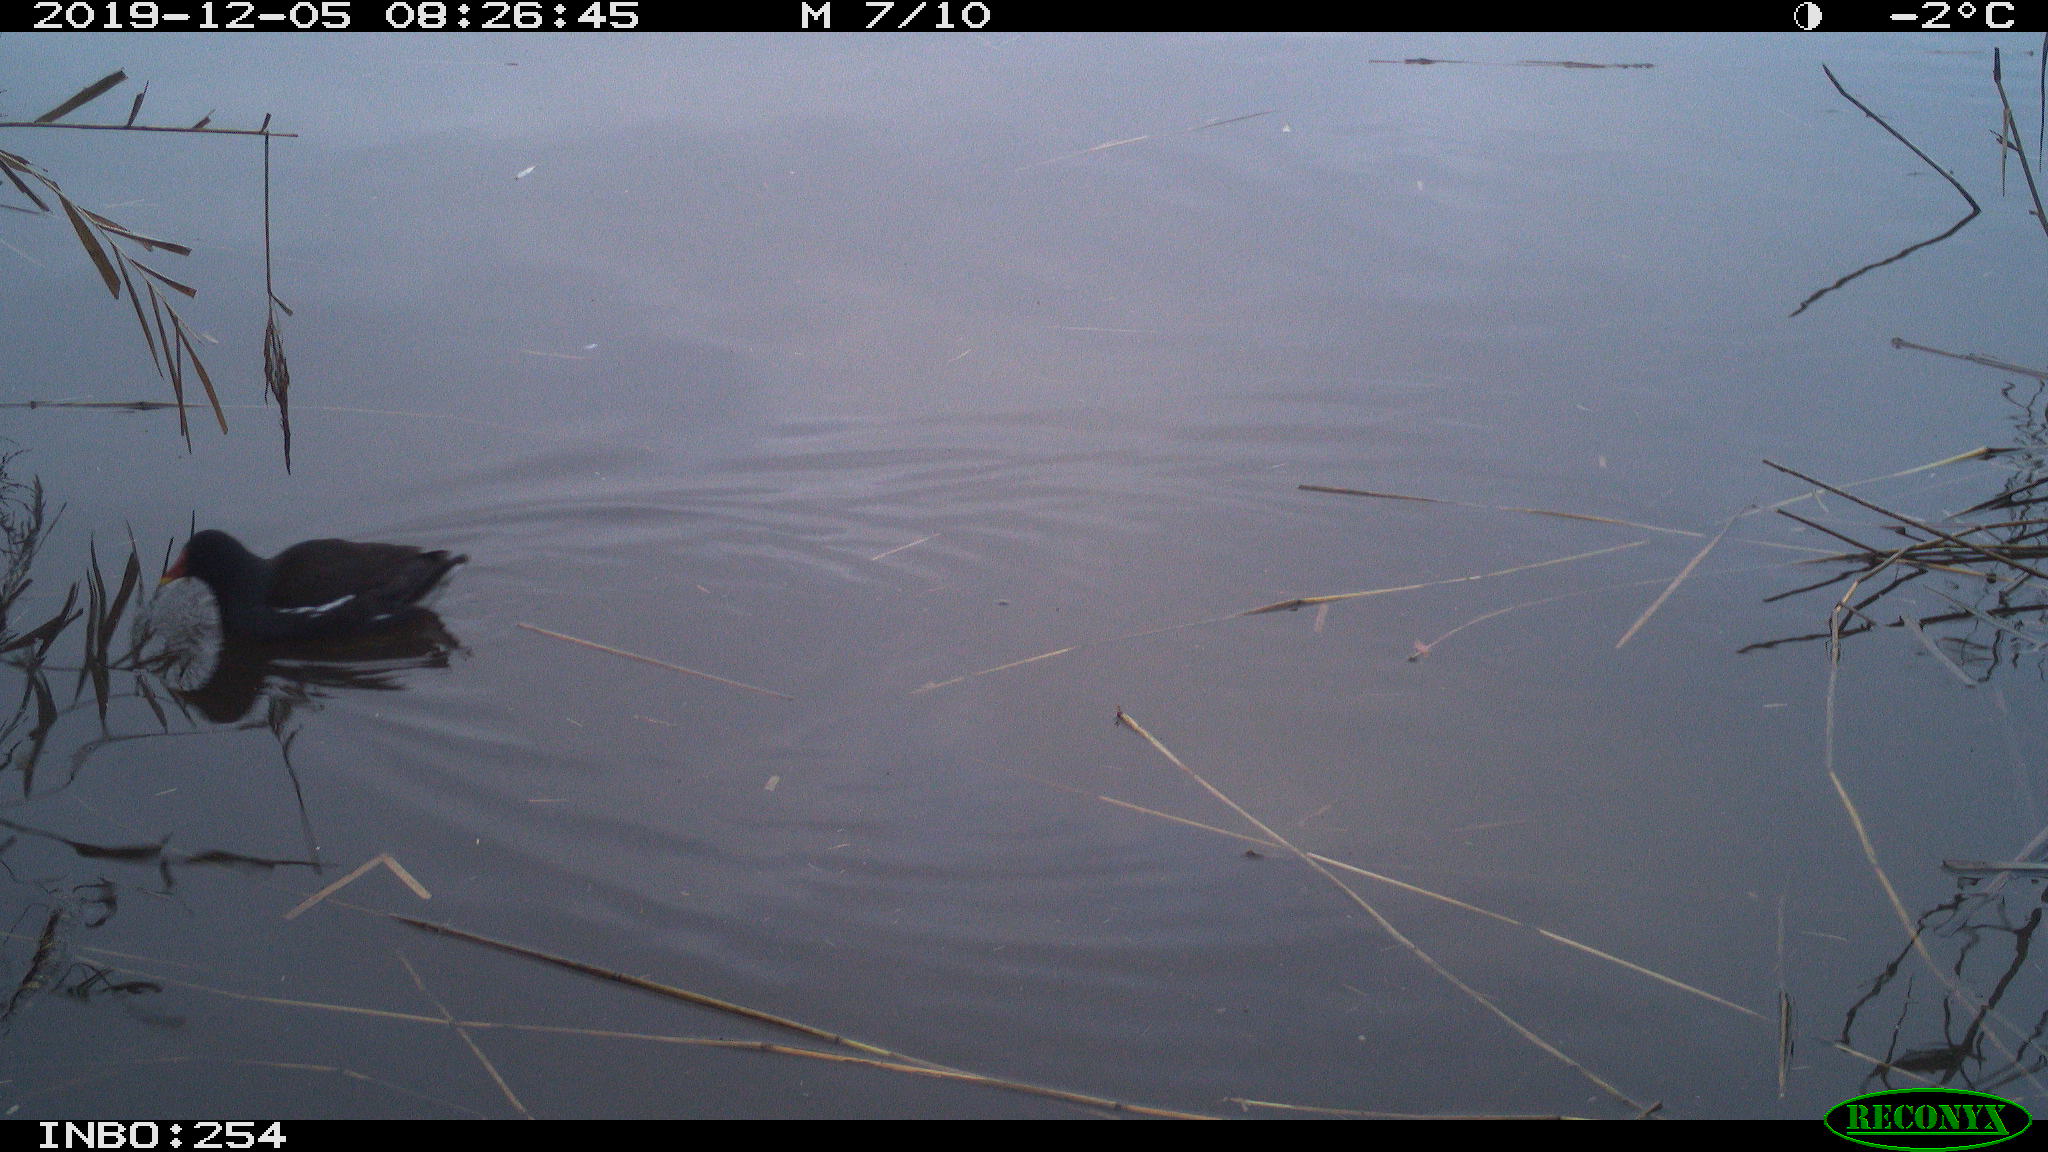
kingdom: Animalia
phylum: Chordata
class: Aves
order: Gruiformes
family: Rallidae
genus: Gallinula
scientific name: Gallinula chloropus
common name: Common moorhen
